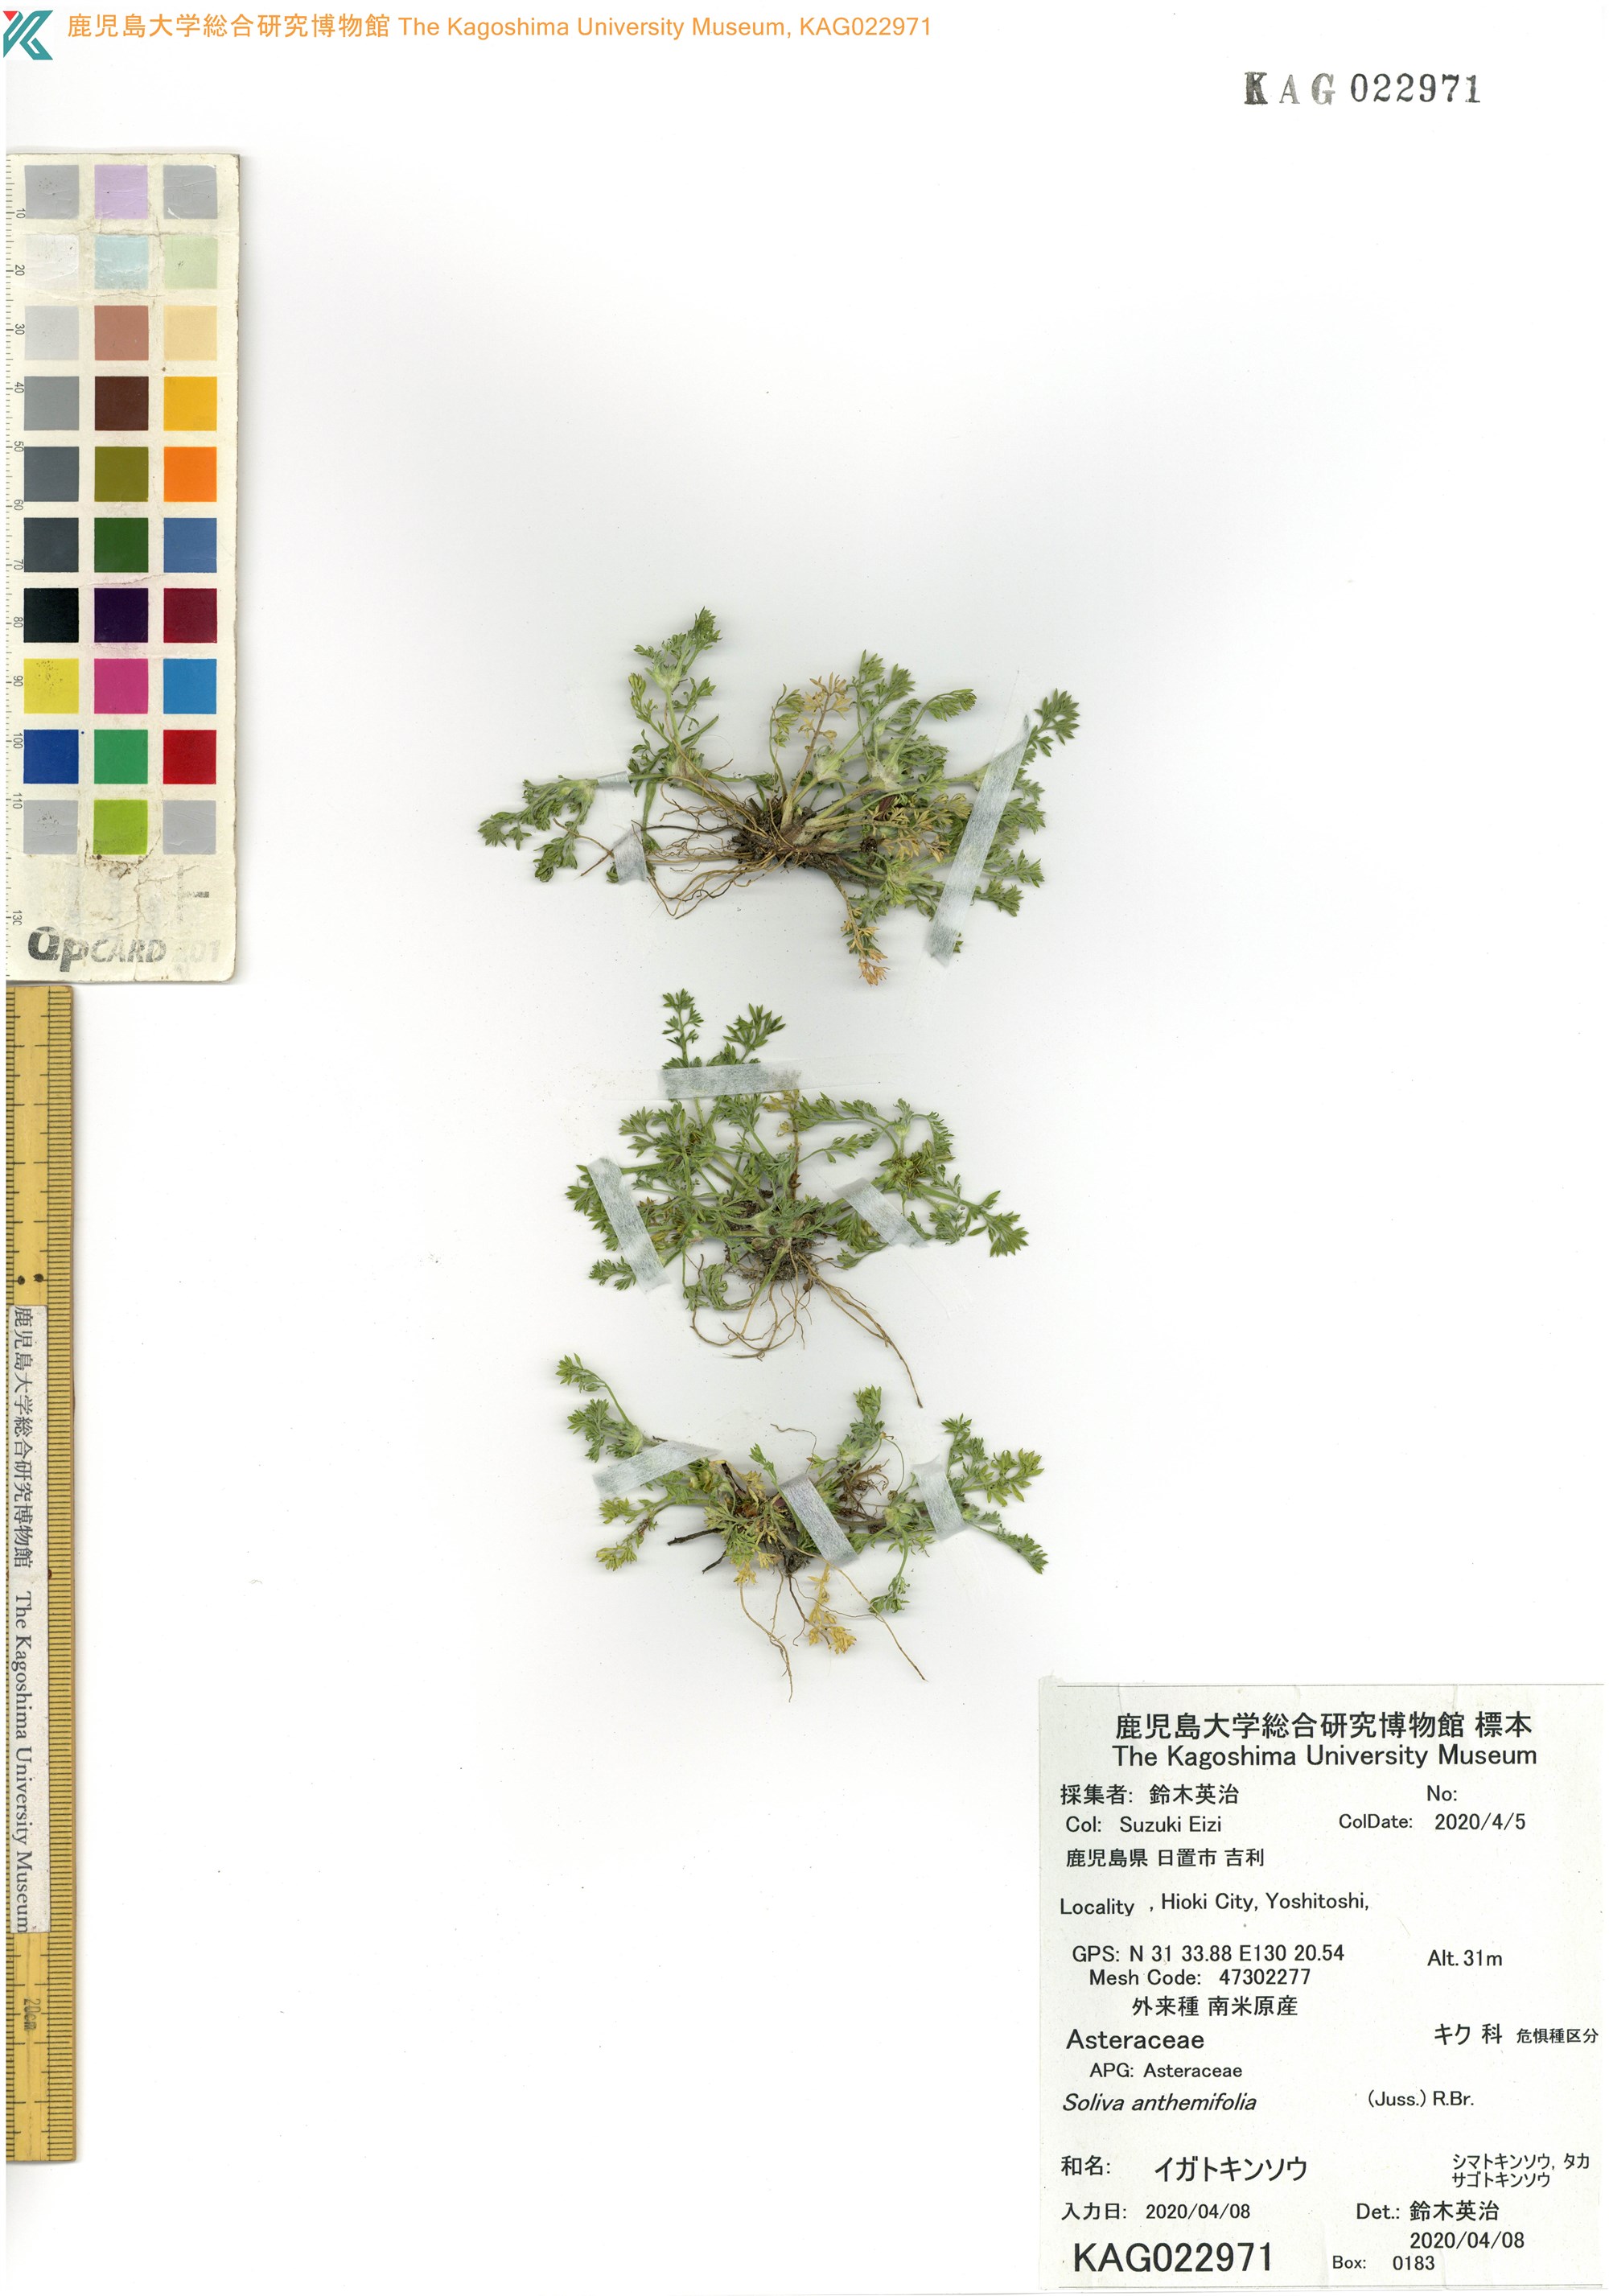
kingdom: Plantae
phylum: Tracheophyta
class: Magnoliopsida
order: Asterales
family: Asteraceae
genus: Soliva
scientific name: Soliva sessilis
